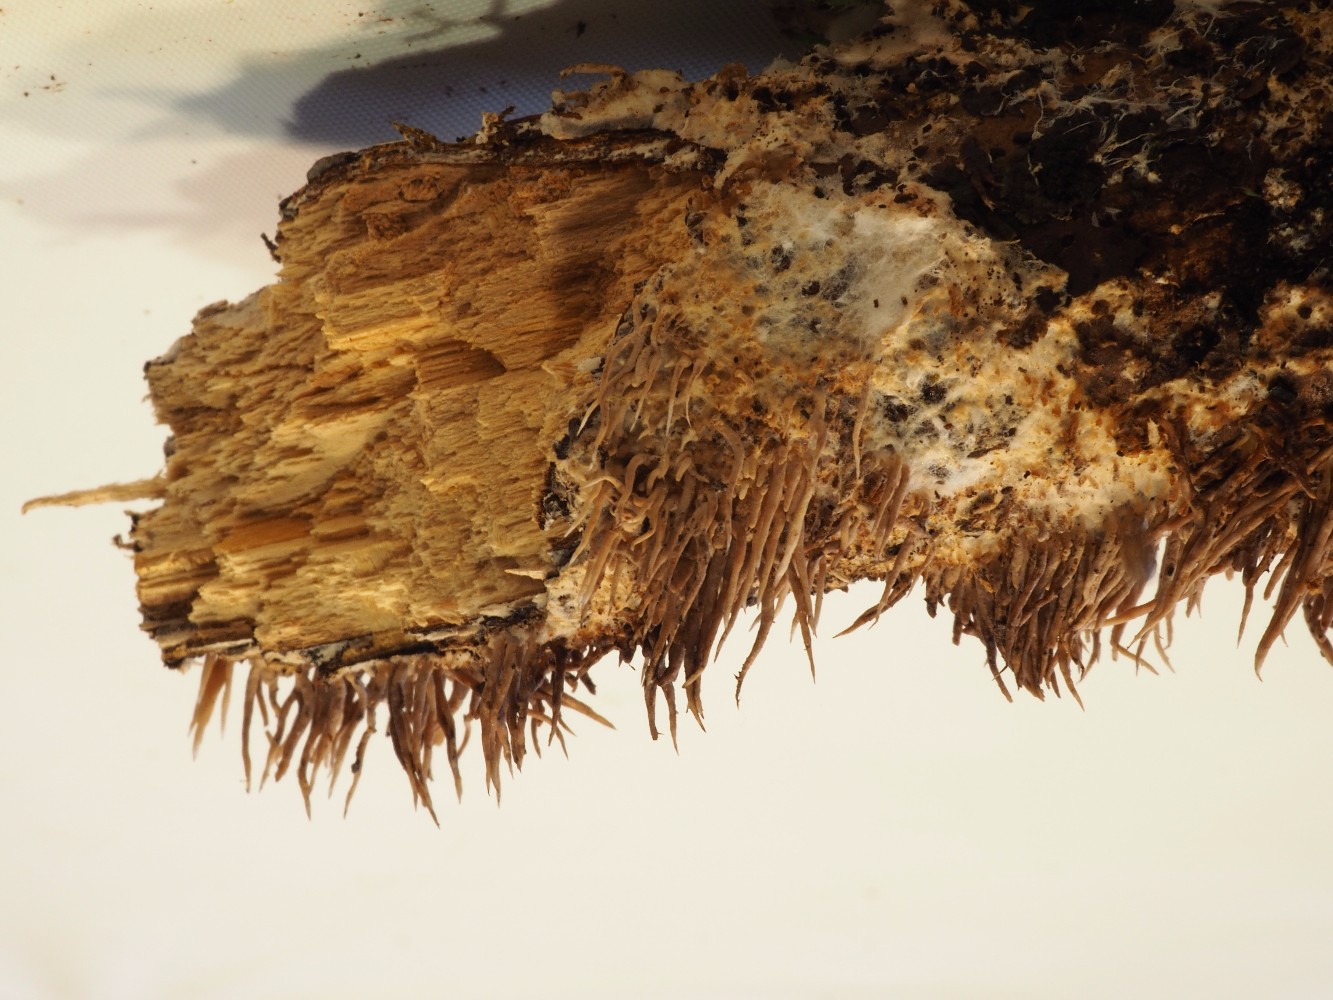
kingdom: Fungi
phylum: Basidiomycota
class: Agaricomycetes
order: Gomphales
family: Lentariaceae
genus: Hydnocristella
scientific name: Hydnocristella himantia
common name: brunlig koralpig
